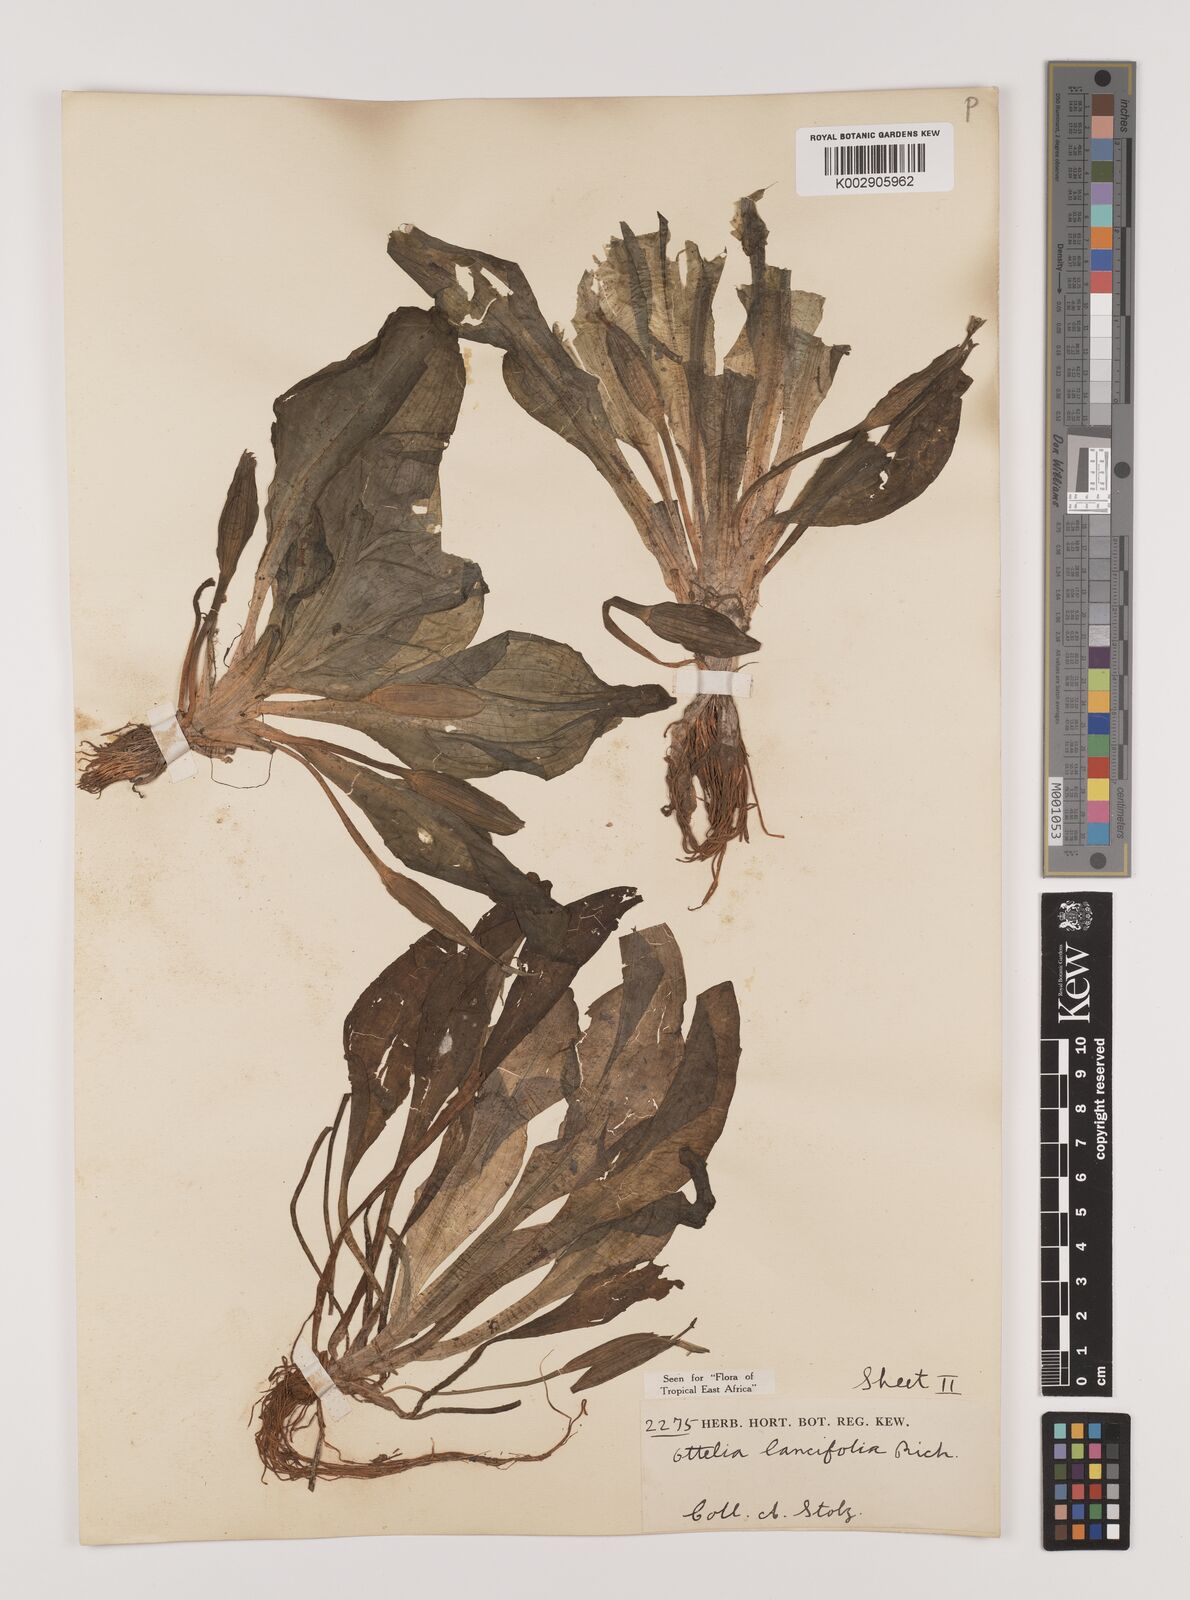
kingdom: Plantae
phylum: Tracheophyta
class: Liliopsida
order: Alismatales
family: Hydrocharitaceae
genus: Ottelia
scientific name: Ottelia ulvifolia
